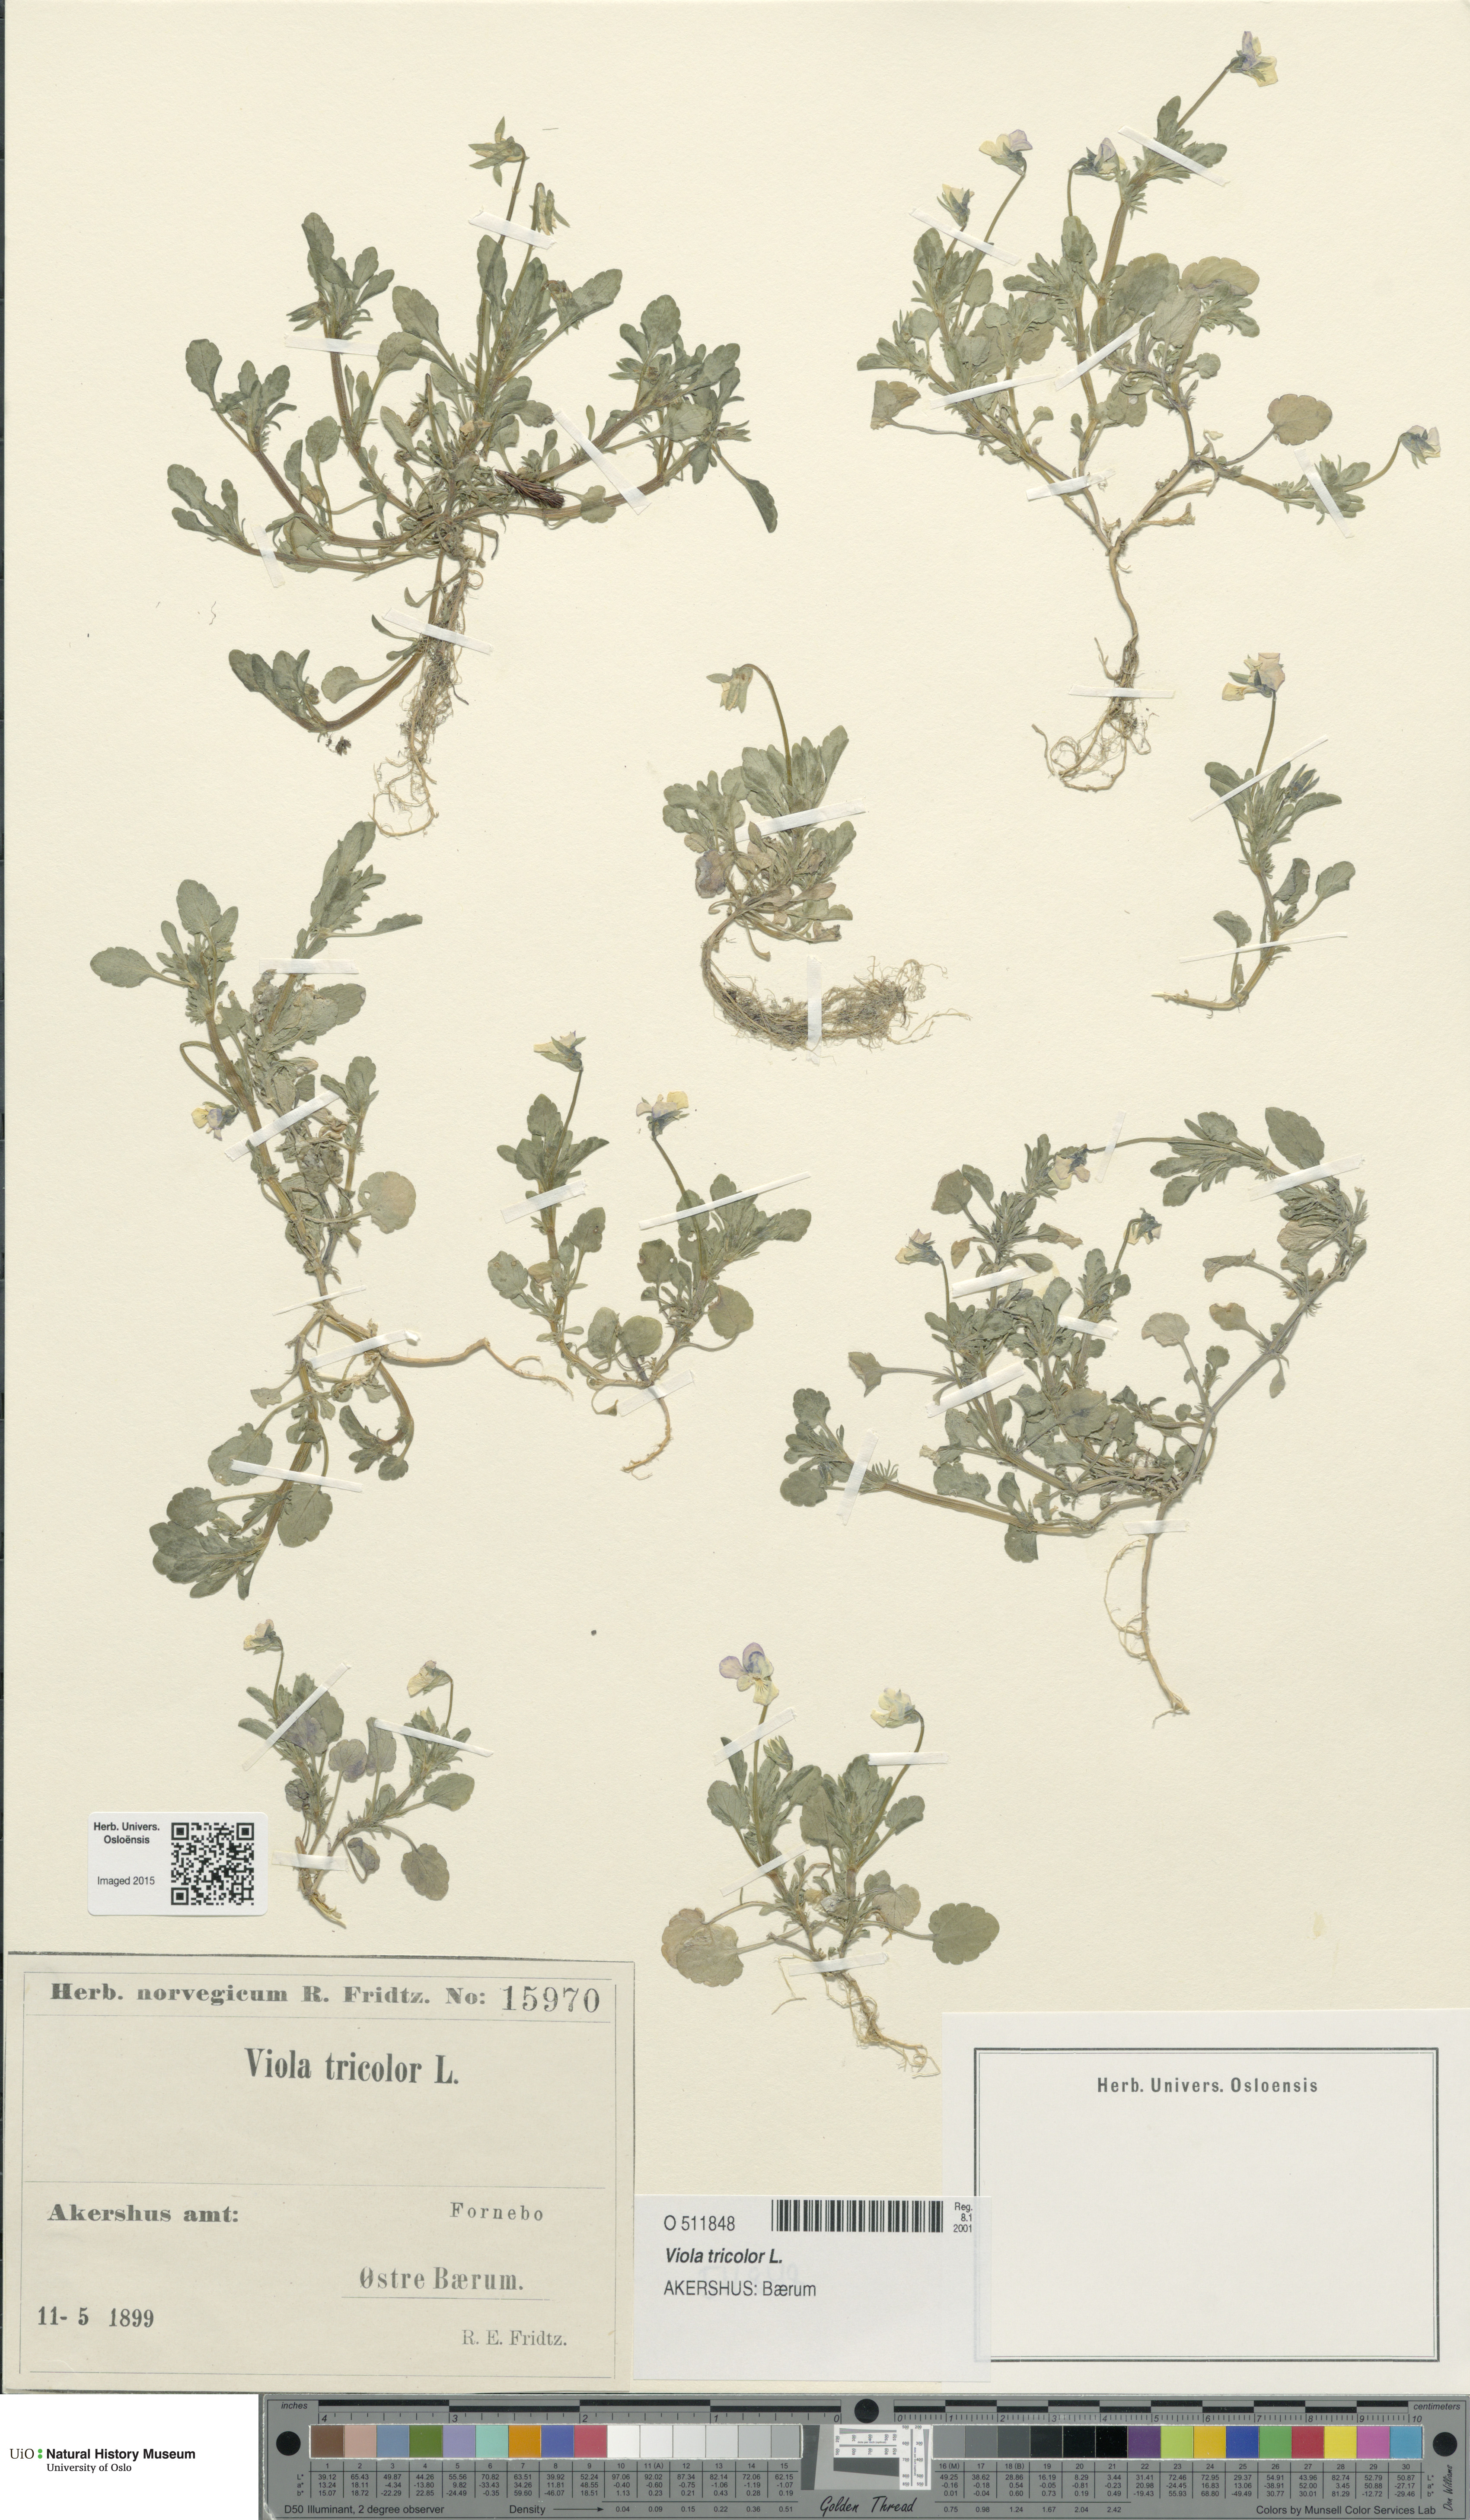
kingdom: Plantae
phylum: Tracheophyta
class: Magnoliopsida
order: Malpighiales
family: Violaceae
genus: Viola
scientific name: Viola tricolor
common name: Pansy
